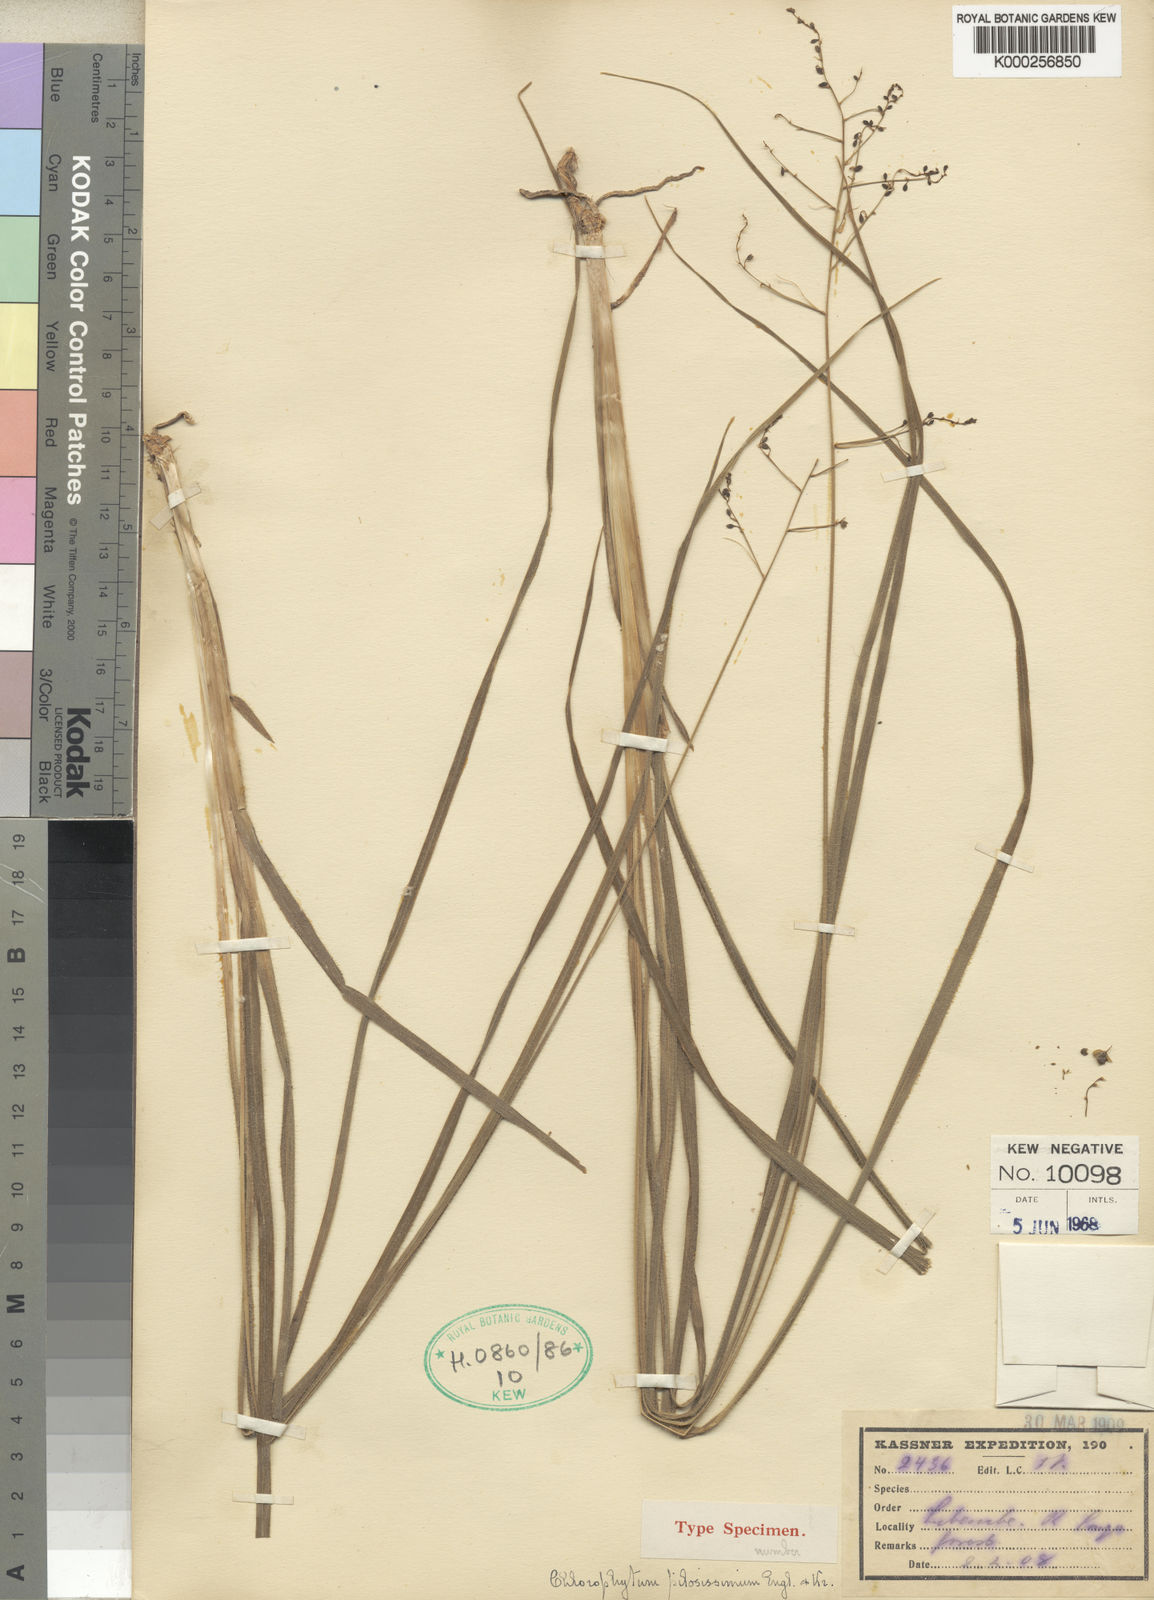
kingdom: Plantae
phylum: Tracheophyta
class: Liliopsida
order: Asparagales
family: Asparagaceae
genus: Chlorophytum
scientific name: Chlorophytum vestitum
